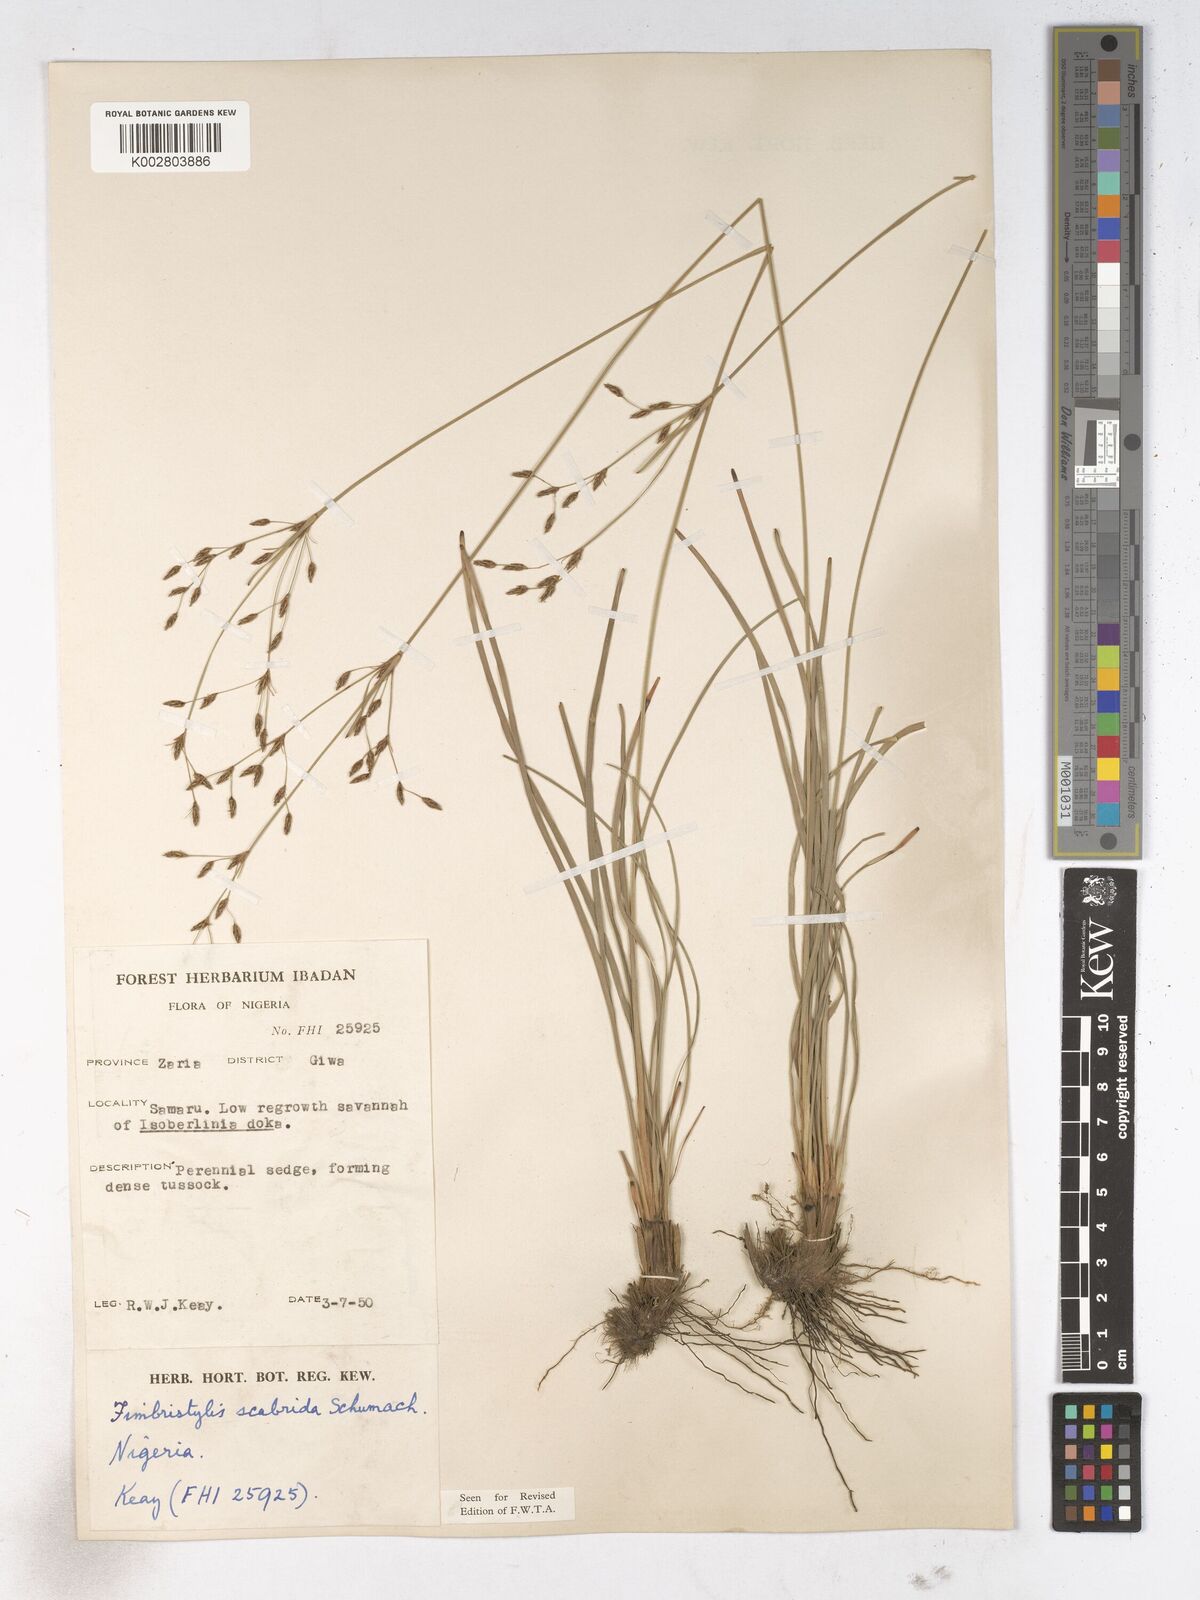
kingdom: Plantae
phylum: Tracheophyta
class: Liliopsida
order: Poales
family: Cyperaceae
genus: Fimbristylis
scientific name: Fimbristylis scabrida
